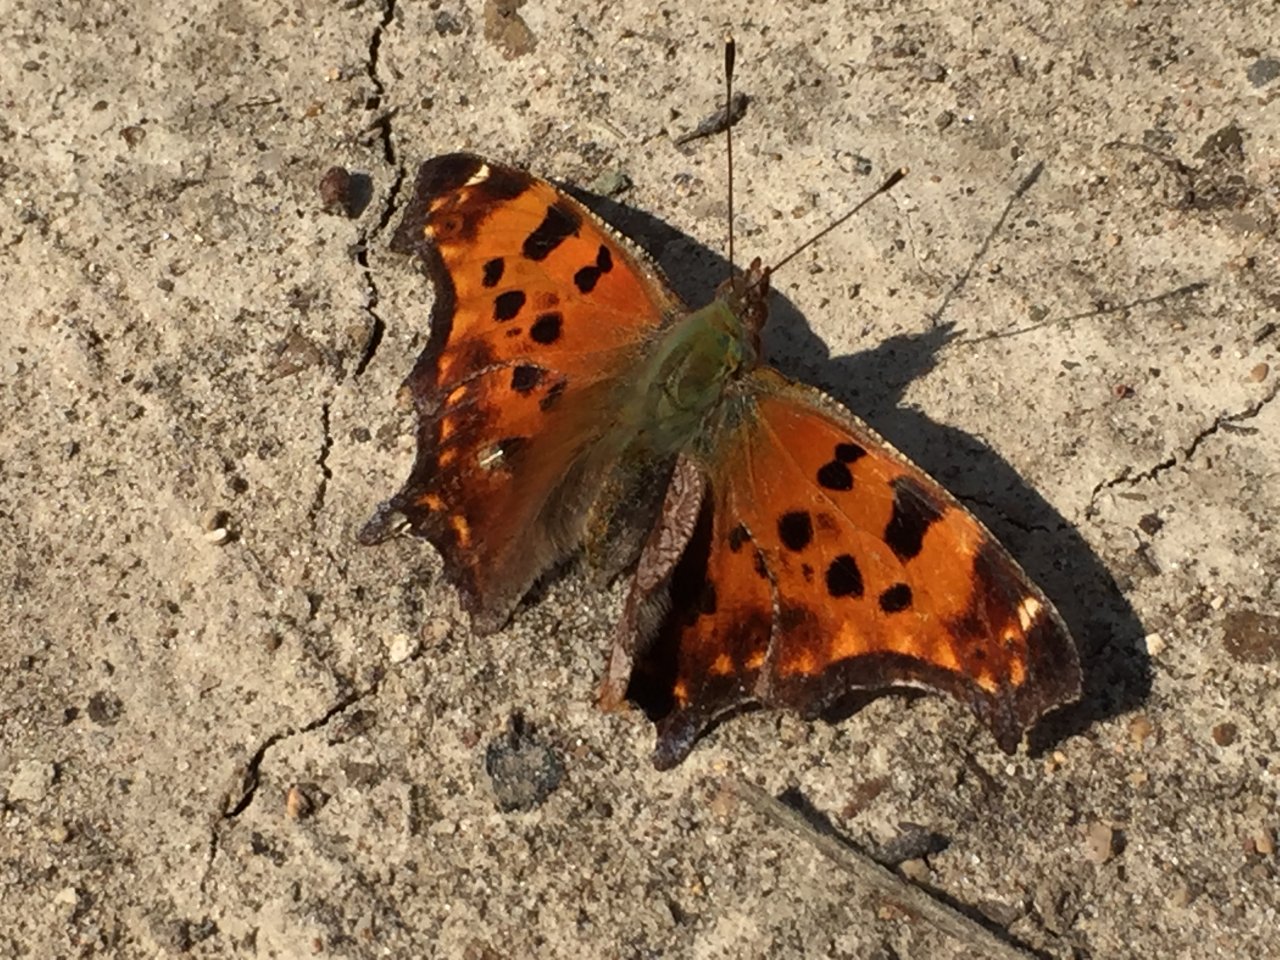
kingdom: Animalia
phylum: Arthropoda
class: Insecta
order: Lepidoptera
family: Nymphalidae
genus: Polygonia
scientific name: Polygonia comma
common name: Eastern Comma
